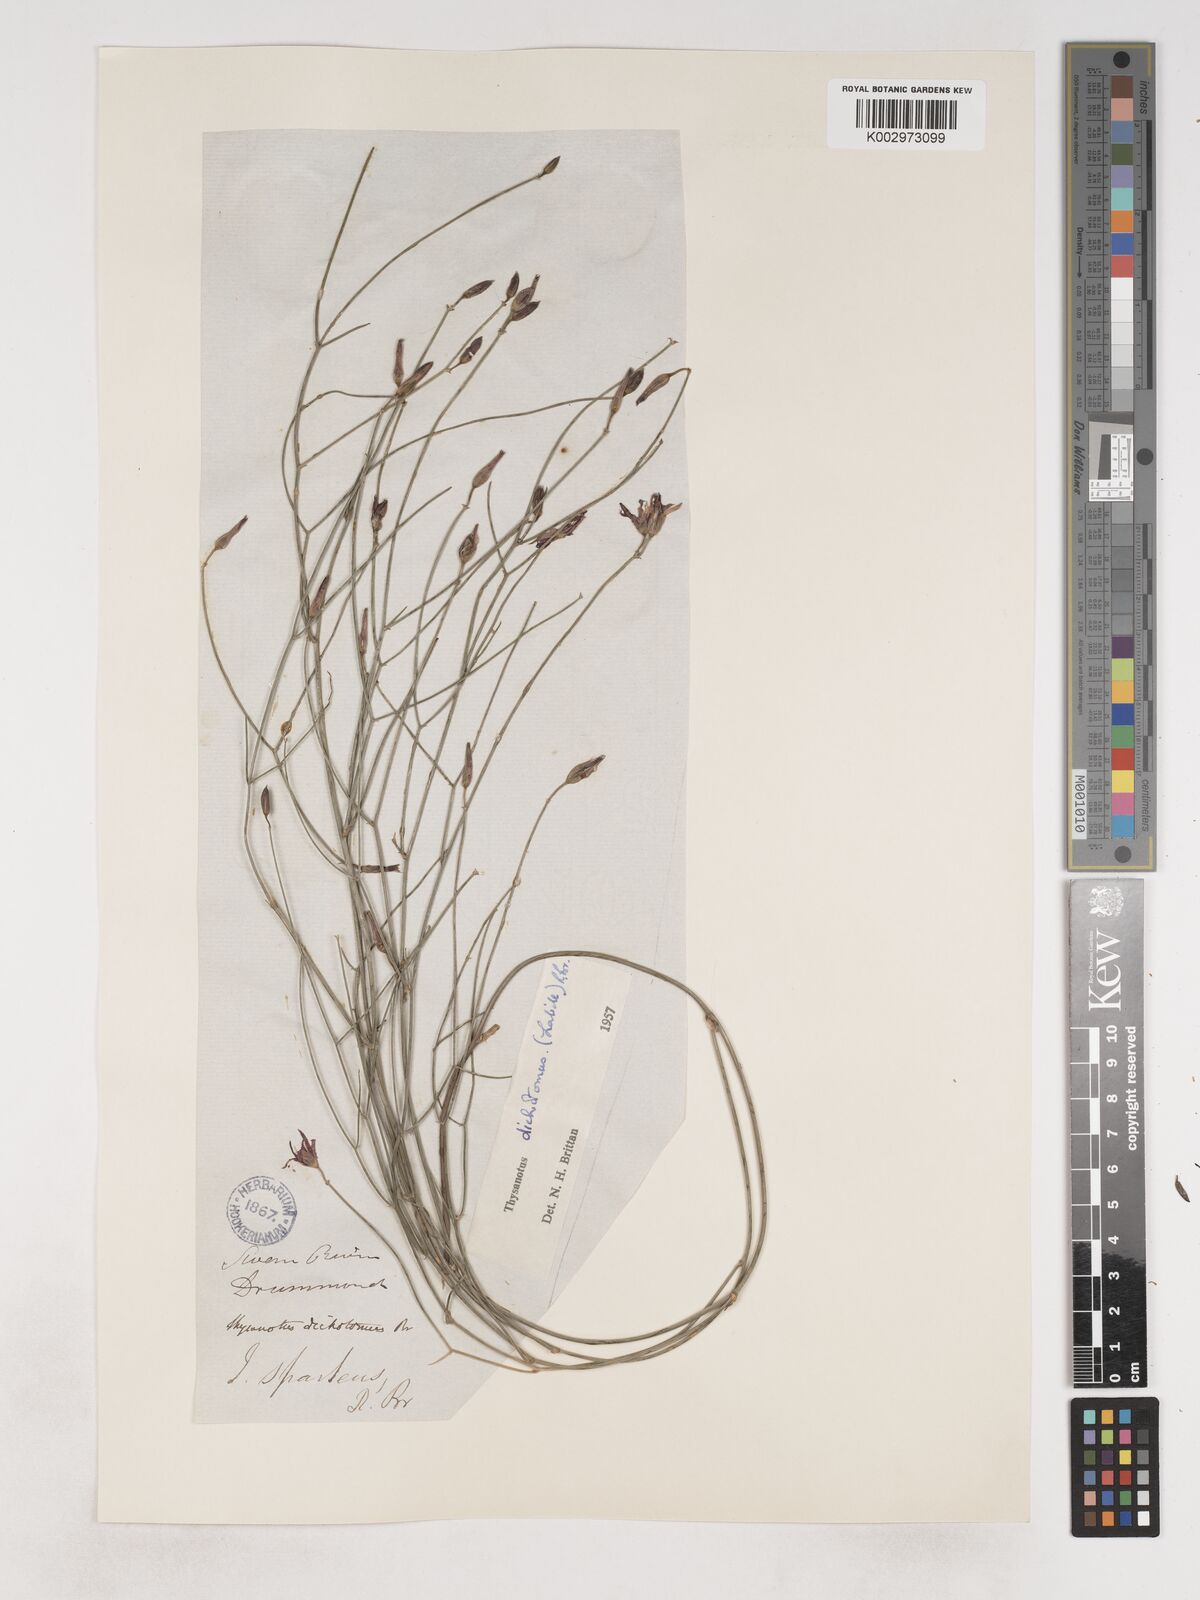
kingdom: Plantae
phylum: Tracheophyta
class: Liliopsida
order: Asparagales
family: Asparagaceae
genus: Thysanotus
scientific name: Thysanotus dichotomus
